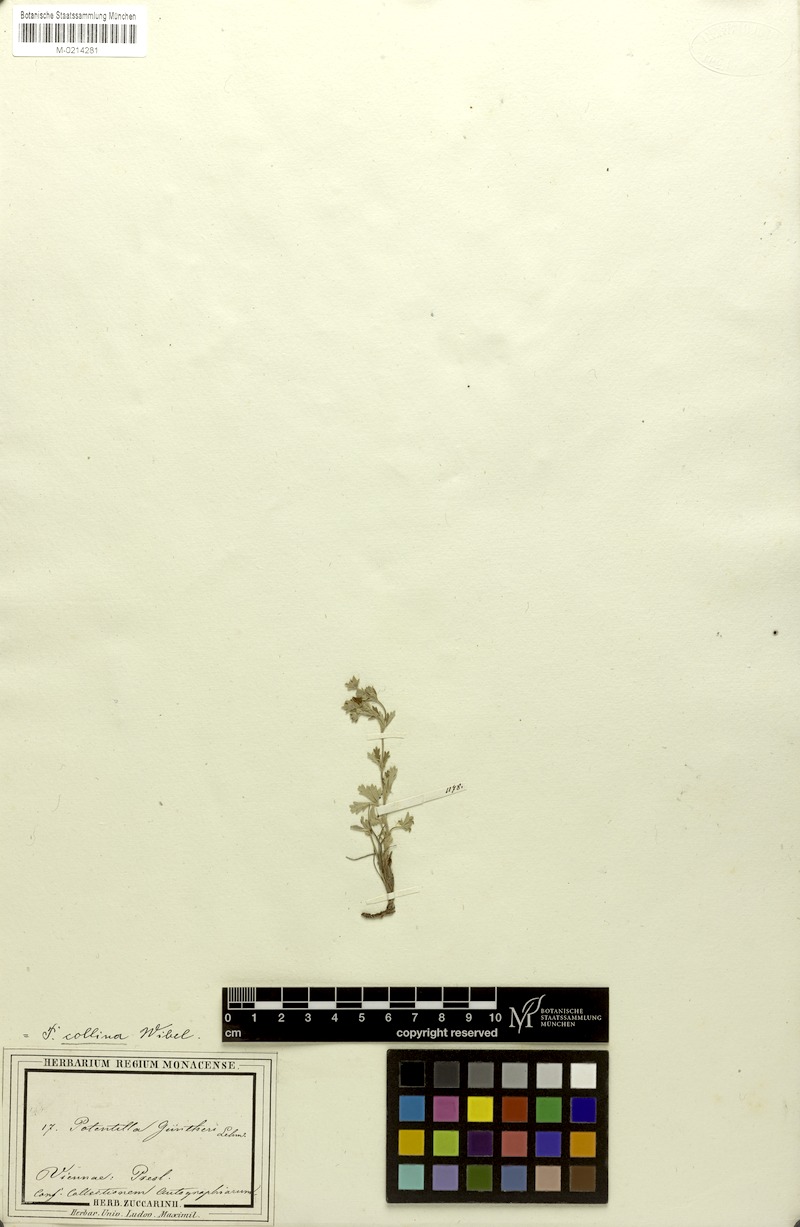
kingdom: Plantae
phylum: Tracheophyta
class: Magnoliopsida
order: Rosales
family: Rosaceae
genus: Potentilla
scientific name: Potentilla collina
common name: Palmleaf cinquefoil
